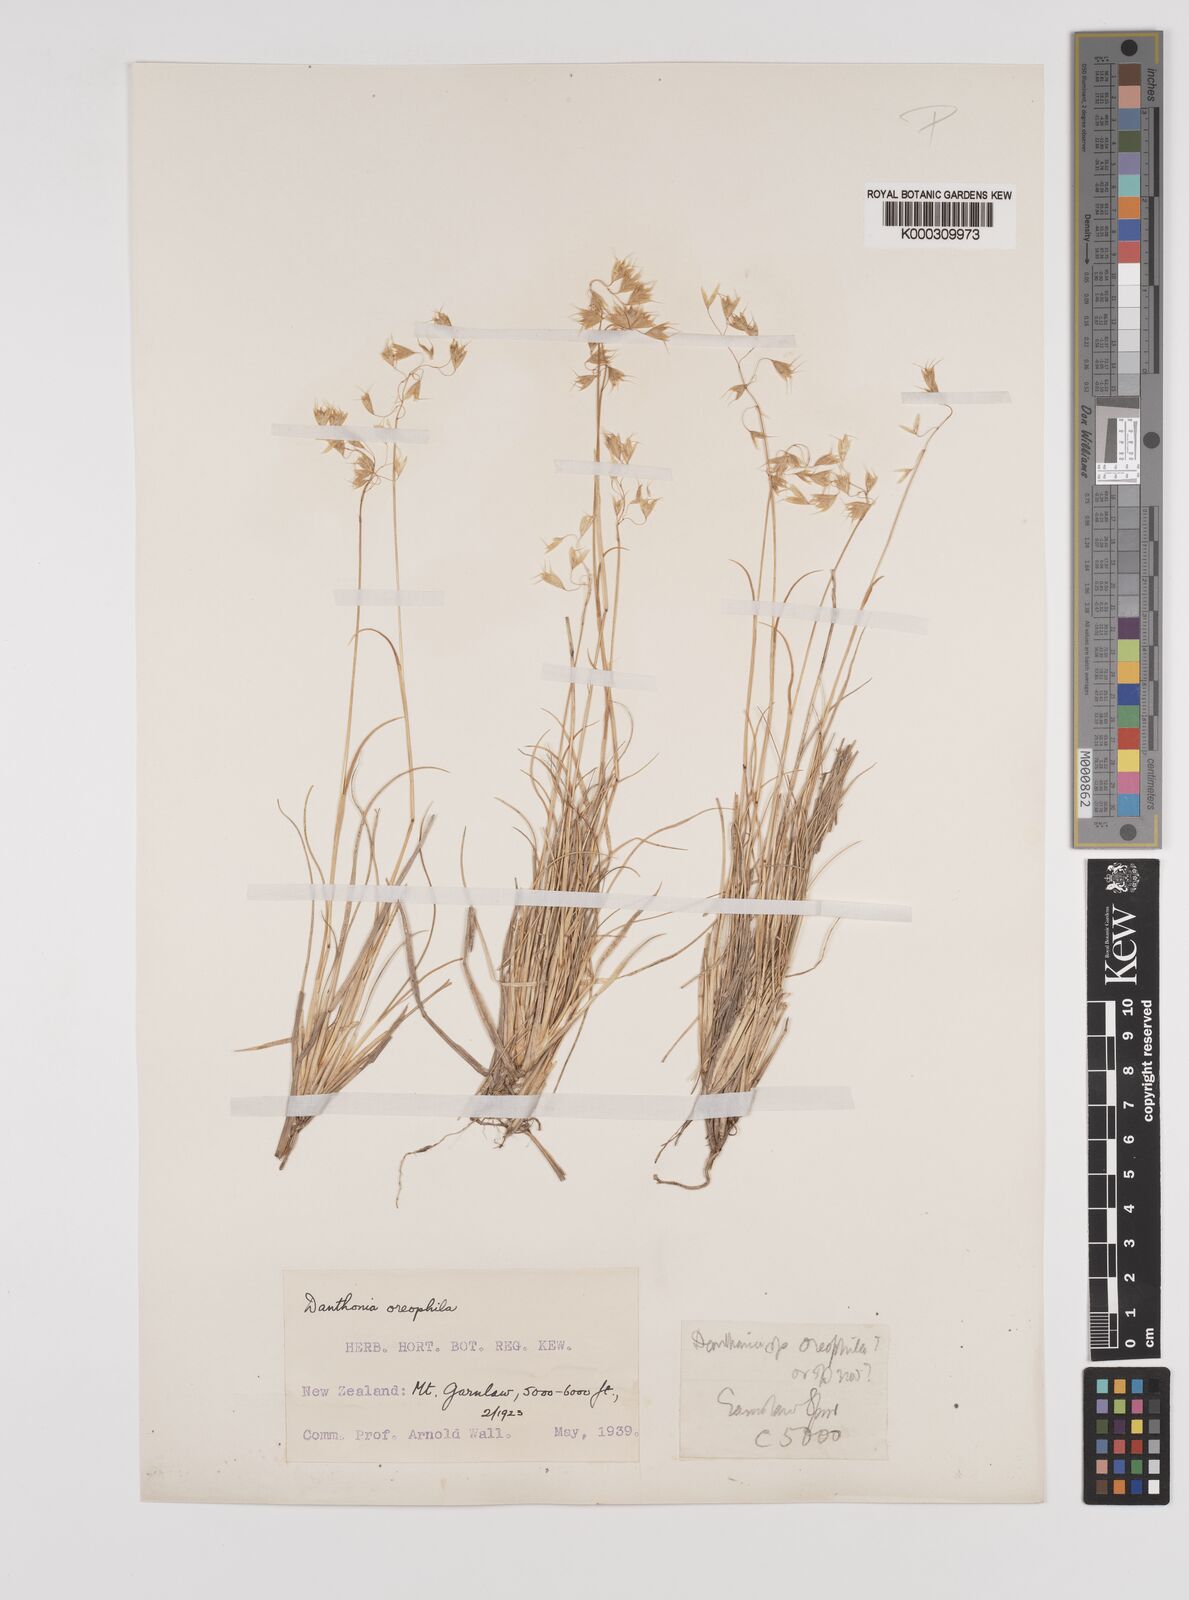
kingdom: Plantae
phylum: Tracheophyta
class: Liliopsida
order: Poales
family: Poaceae
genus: Chionochloa
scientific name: Chionochloa oreophila
